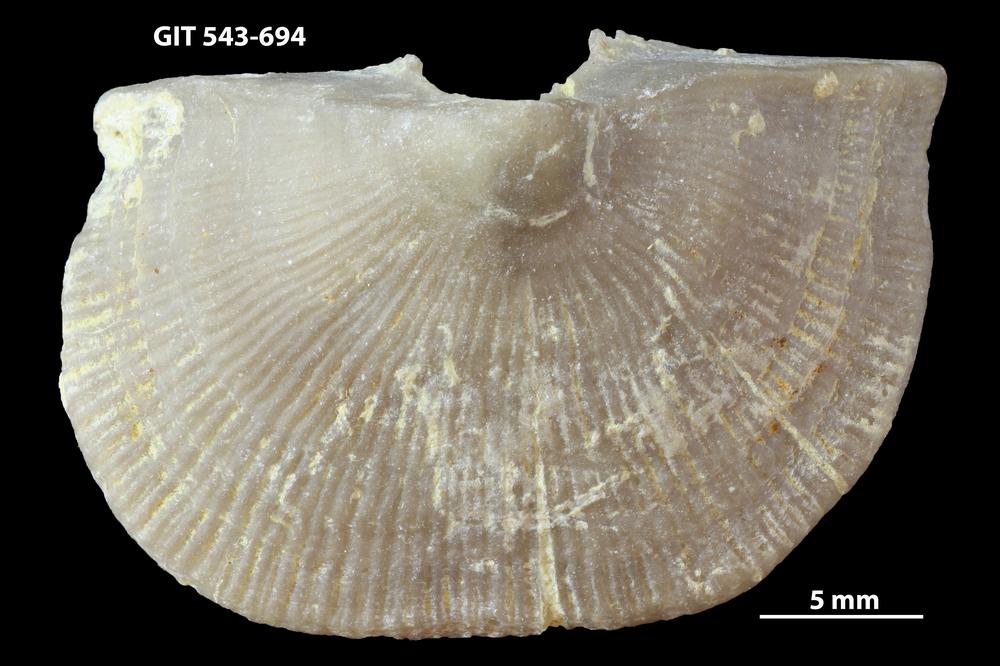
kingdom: Animalia
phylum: Brachiopoda
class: Rhynchonellata
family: Clitambonitidae
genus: Vellamo
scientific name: Vellamo oandoensis
